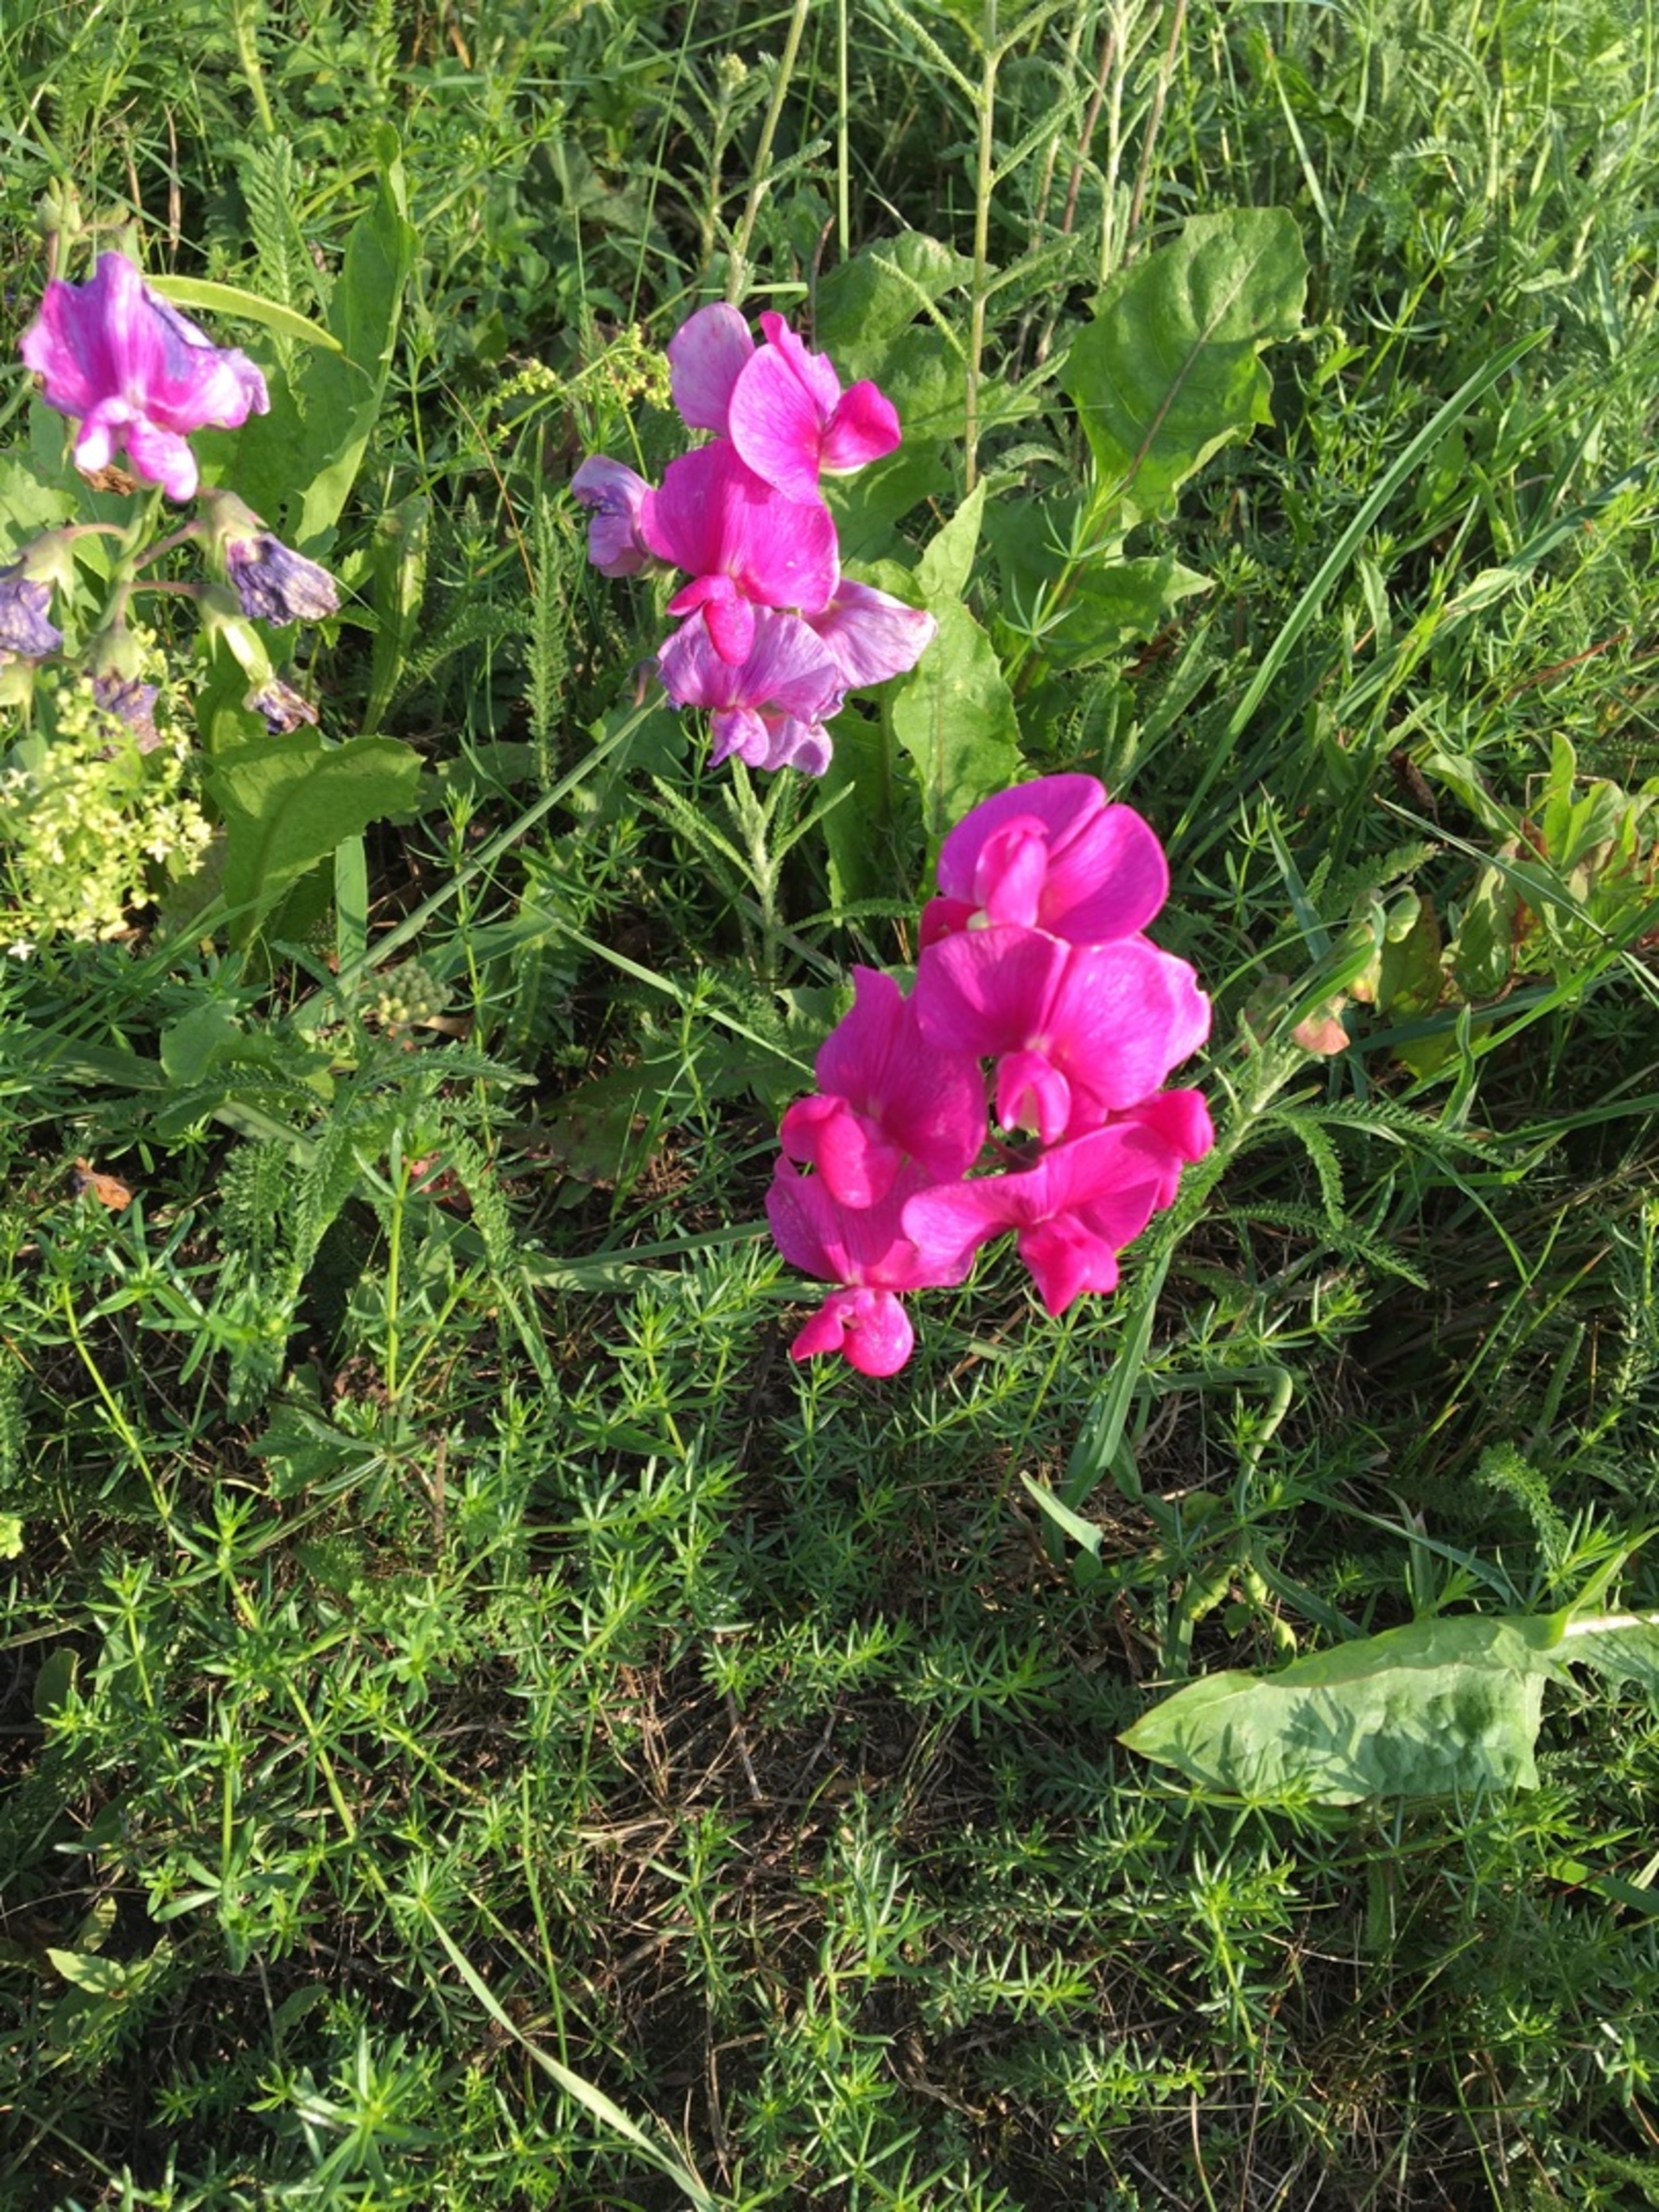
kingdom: Plantae
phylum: Tracheophyta
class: Magnoliopsida
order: Fabales
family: Fabaceae
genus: Lathyrus
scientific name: Lathyrus latifolius
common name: Flerårig ærteblomst
